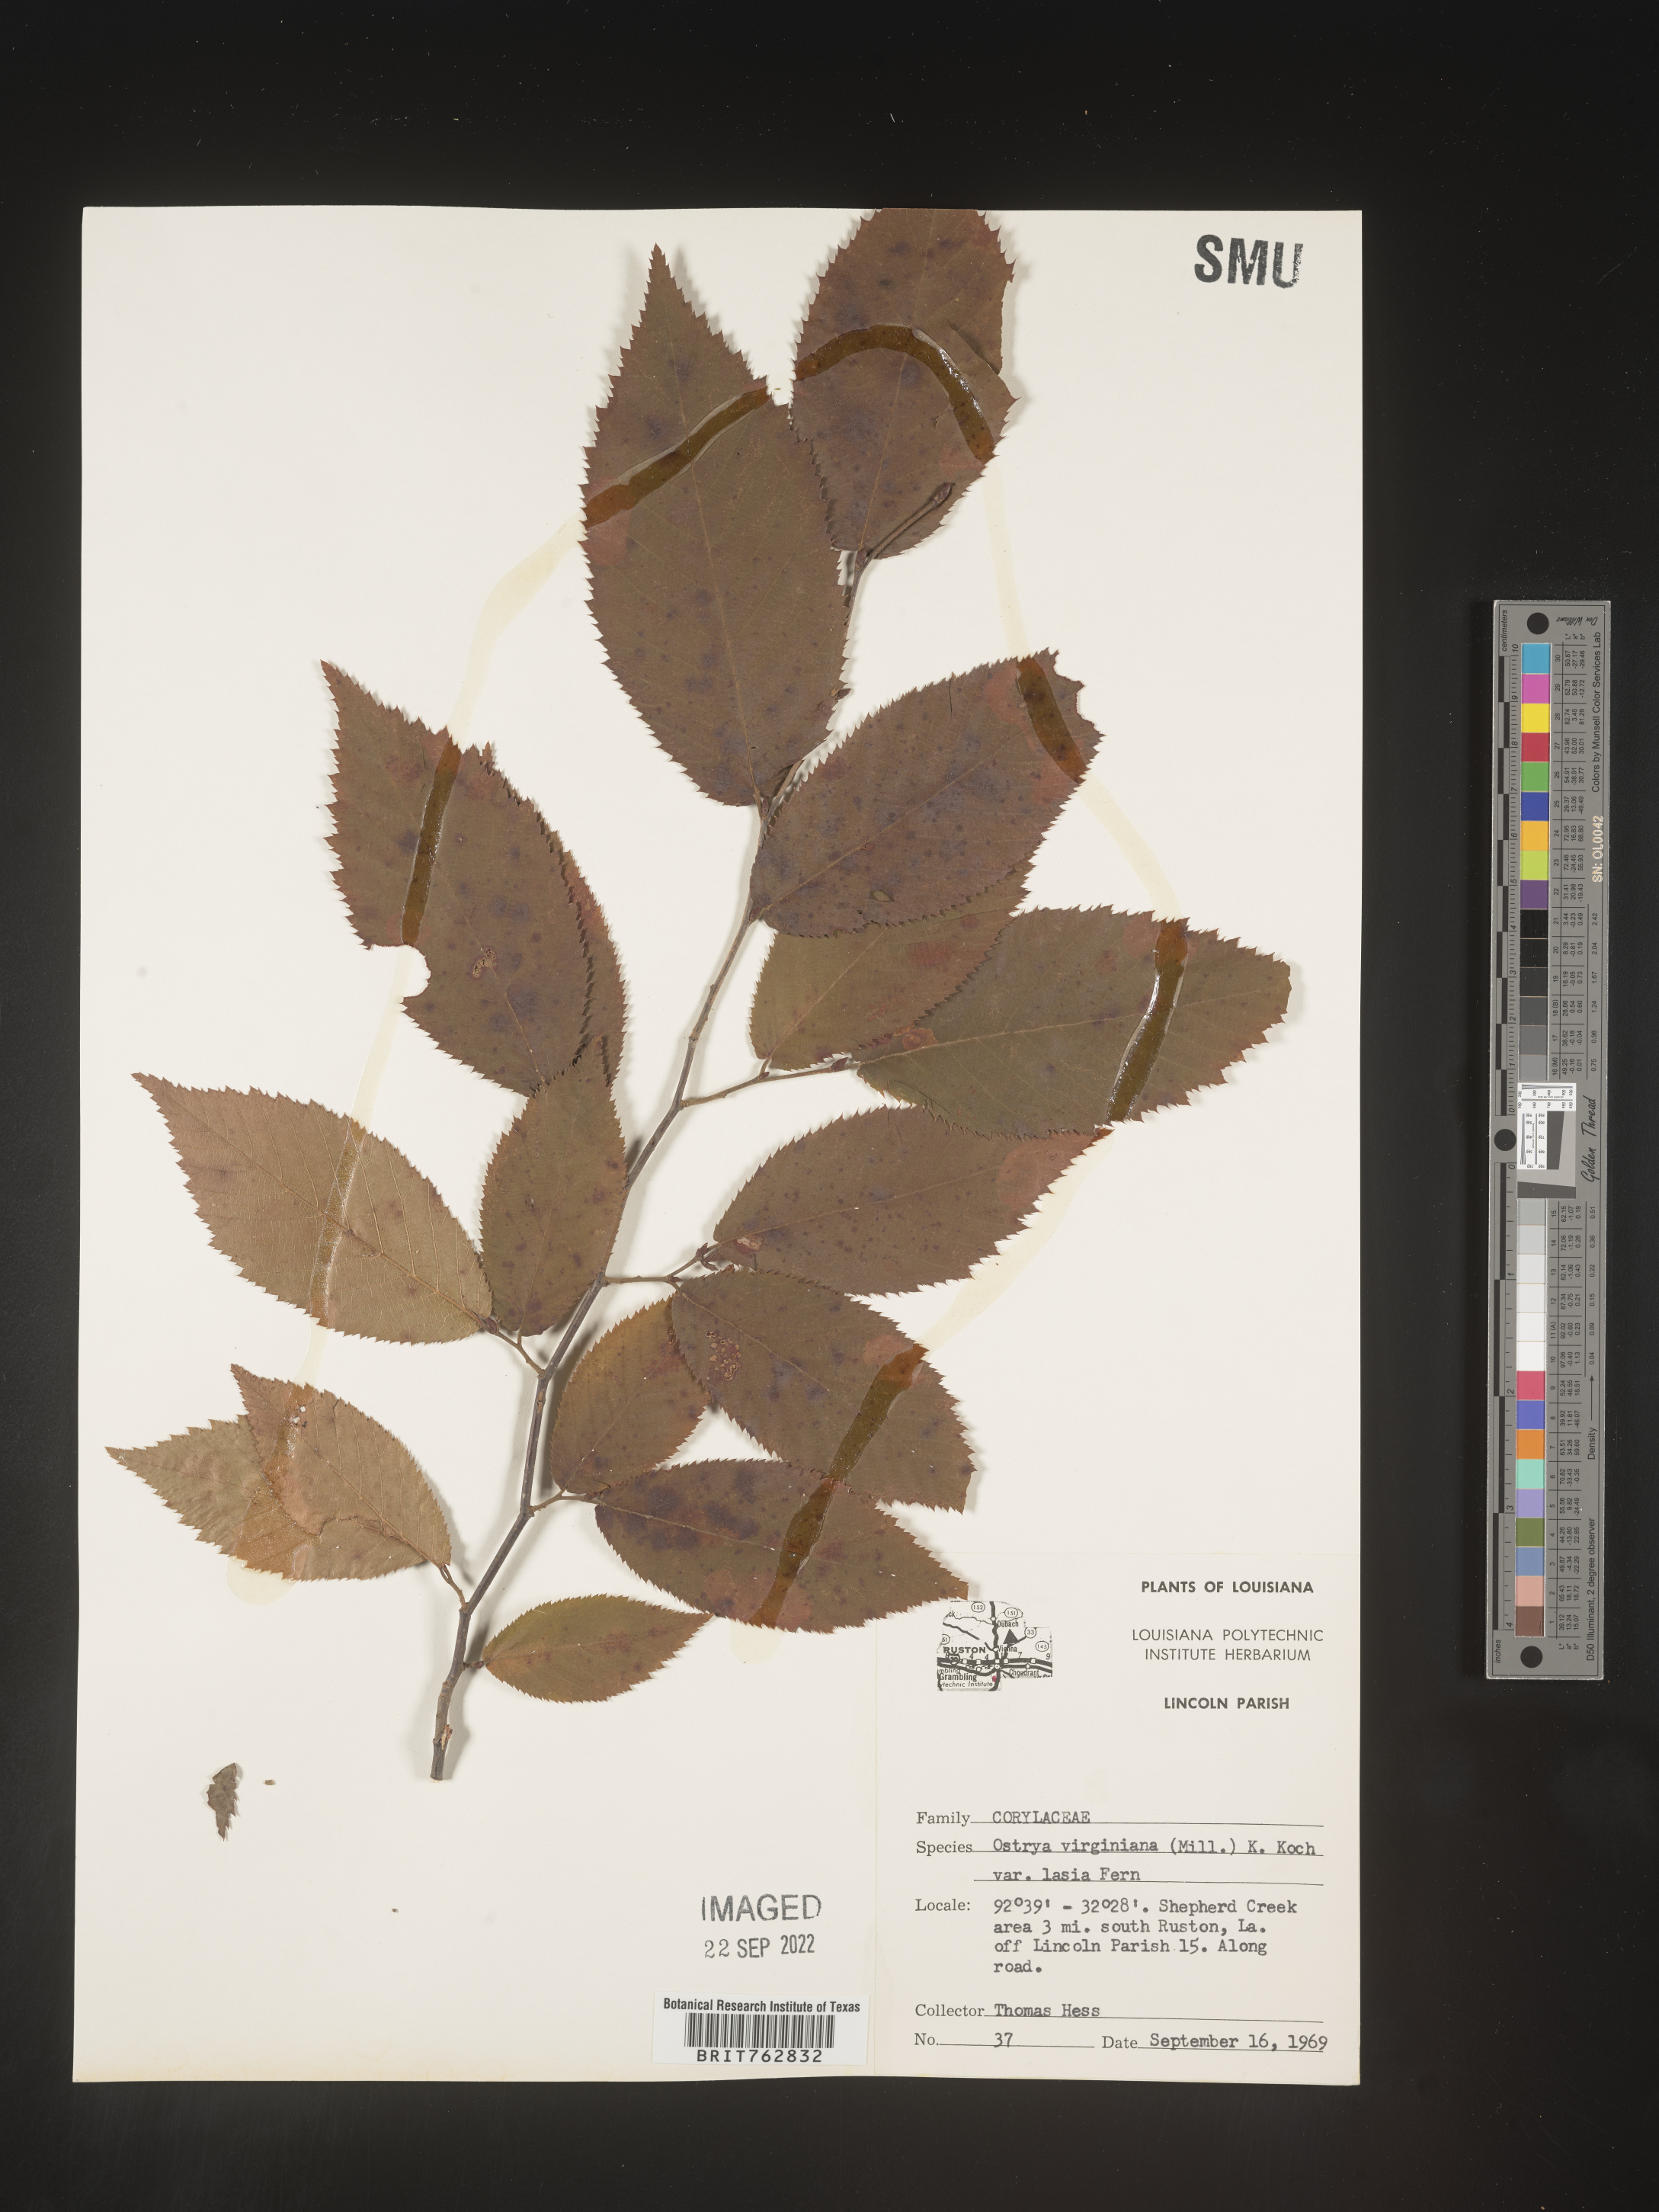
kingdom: Plantae
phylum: Tracheophyta
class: Magnoliopsida
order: Fagales
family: Betulaceae
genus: Ostrya
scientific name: Ostrya virginiana
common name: Ironwood
